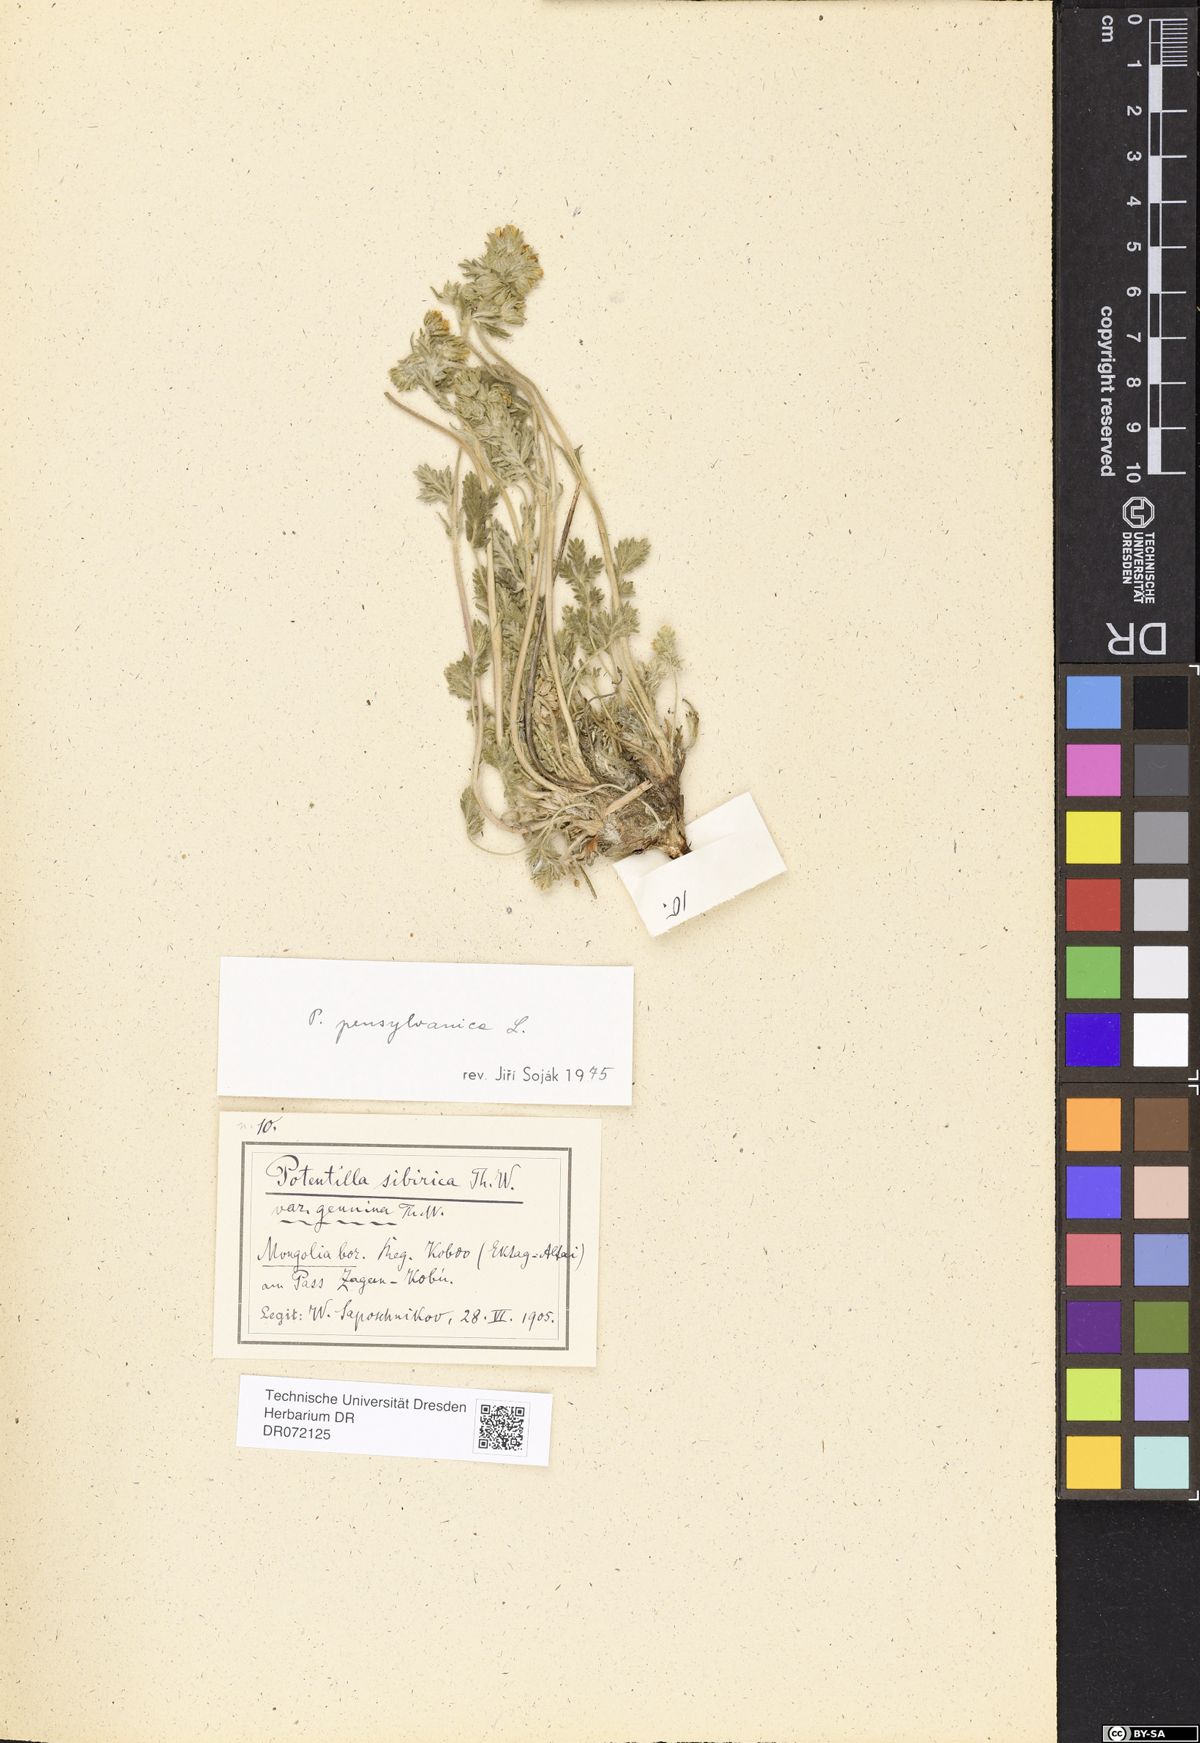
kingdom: Plantae
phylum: Tracheophyta
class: Magnoliopsida
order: Rosales
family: Rosaceae
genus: Potentilla
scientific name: Potentilla pensylvanica
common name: Pennsylvania cinquefoil
